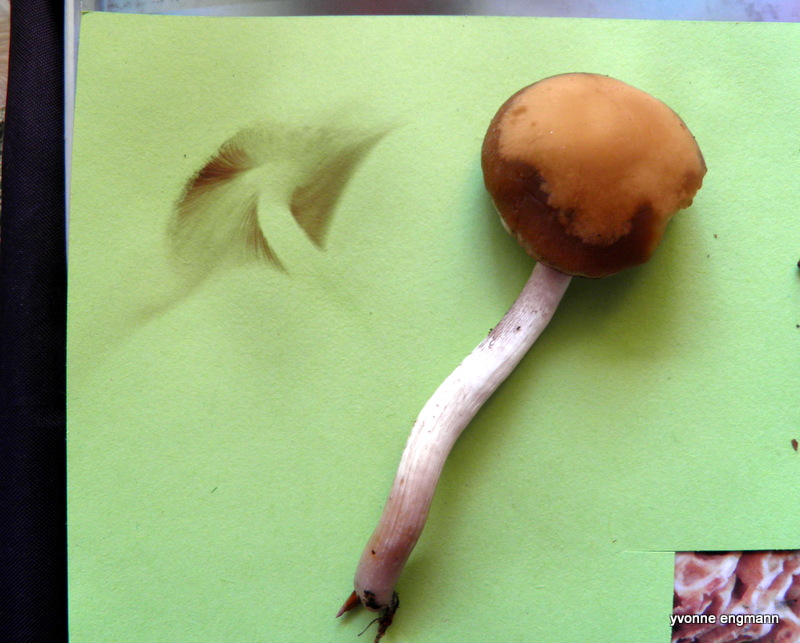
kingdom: Fungi
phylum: Basidiomycota
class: Agaricomycetes
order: Agaricales
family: Psathyrellaceae
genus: Psathyrella
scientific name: Psathyrella piluliformis
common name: lysstokket mørkhat
